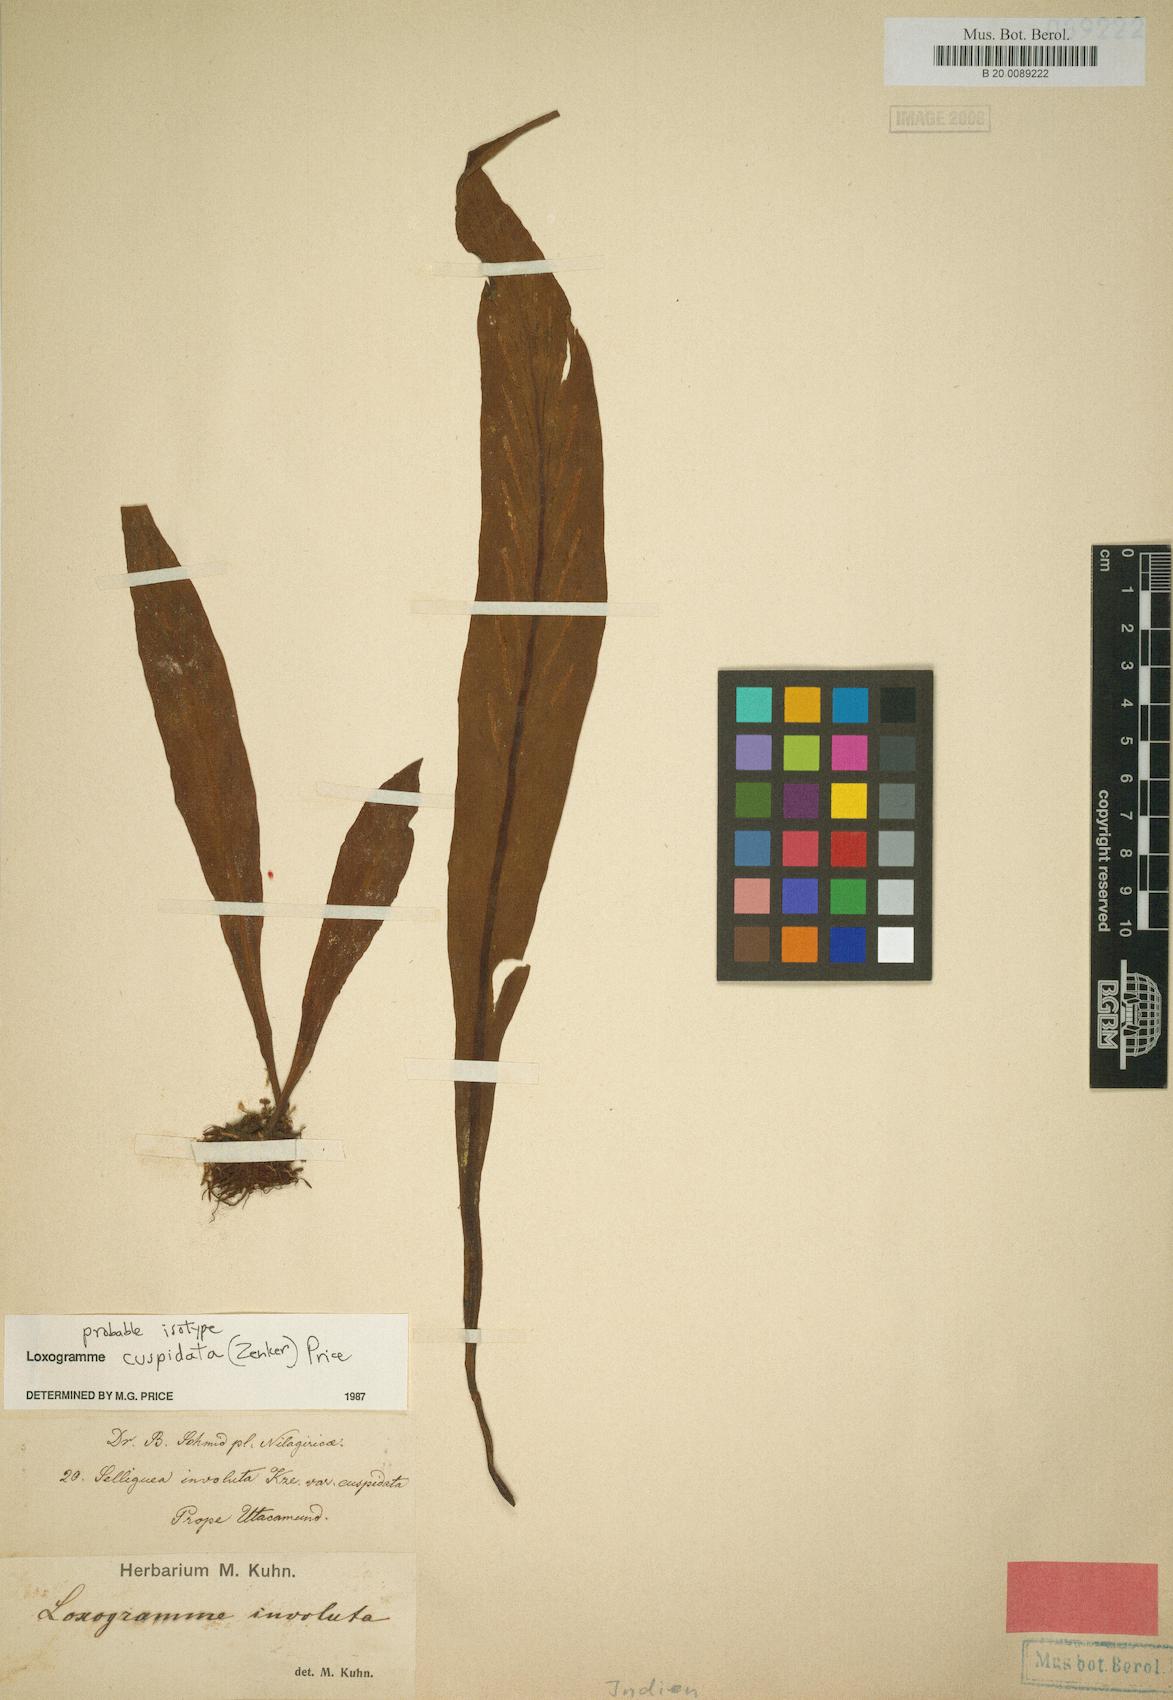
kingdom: Plantae
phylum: Tracheophyta
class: Polypodiopsida
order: Polypodiales
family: Polypodiaceae
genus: Loxogramme
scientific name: Loxogramme cuspidata
